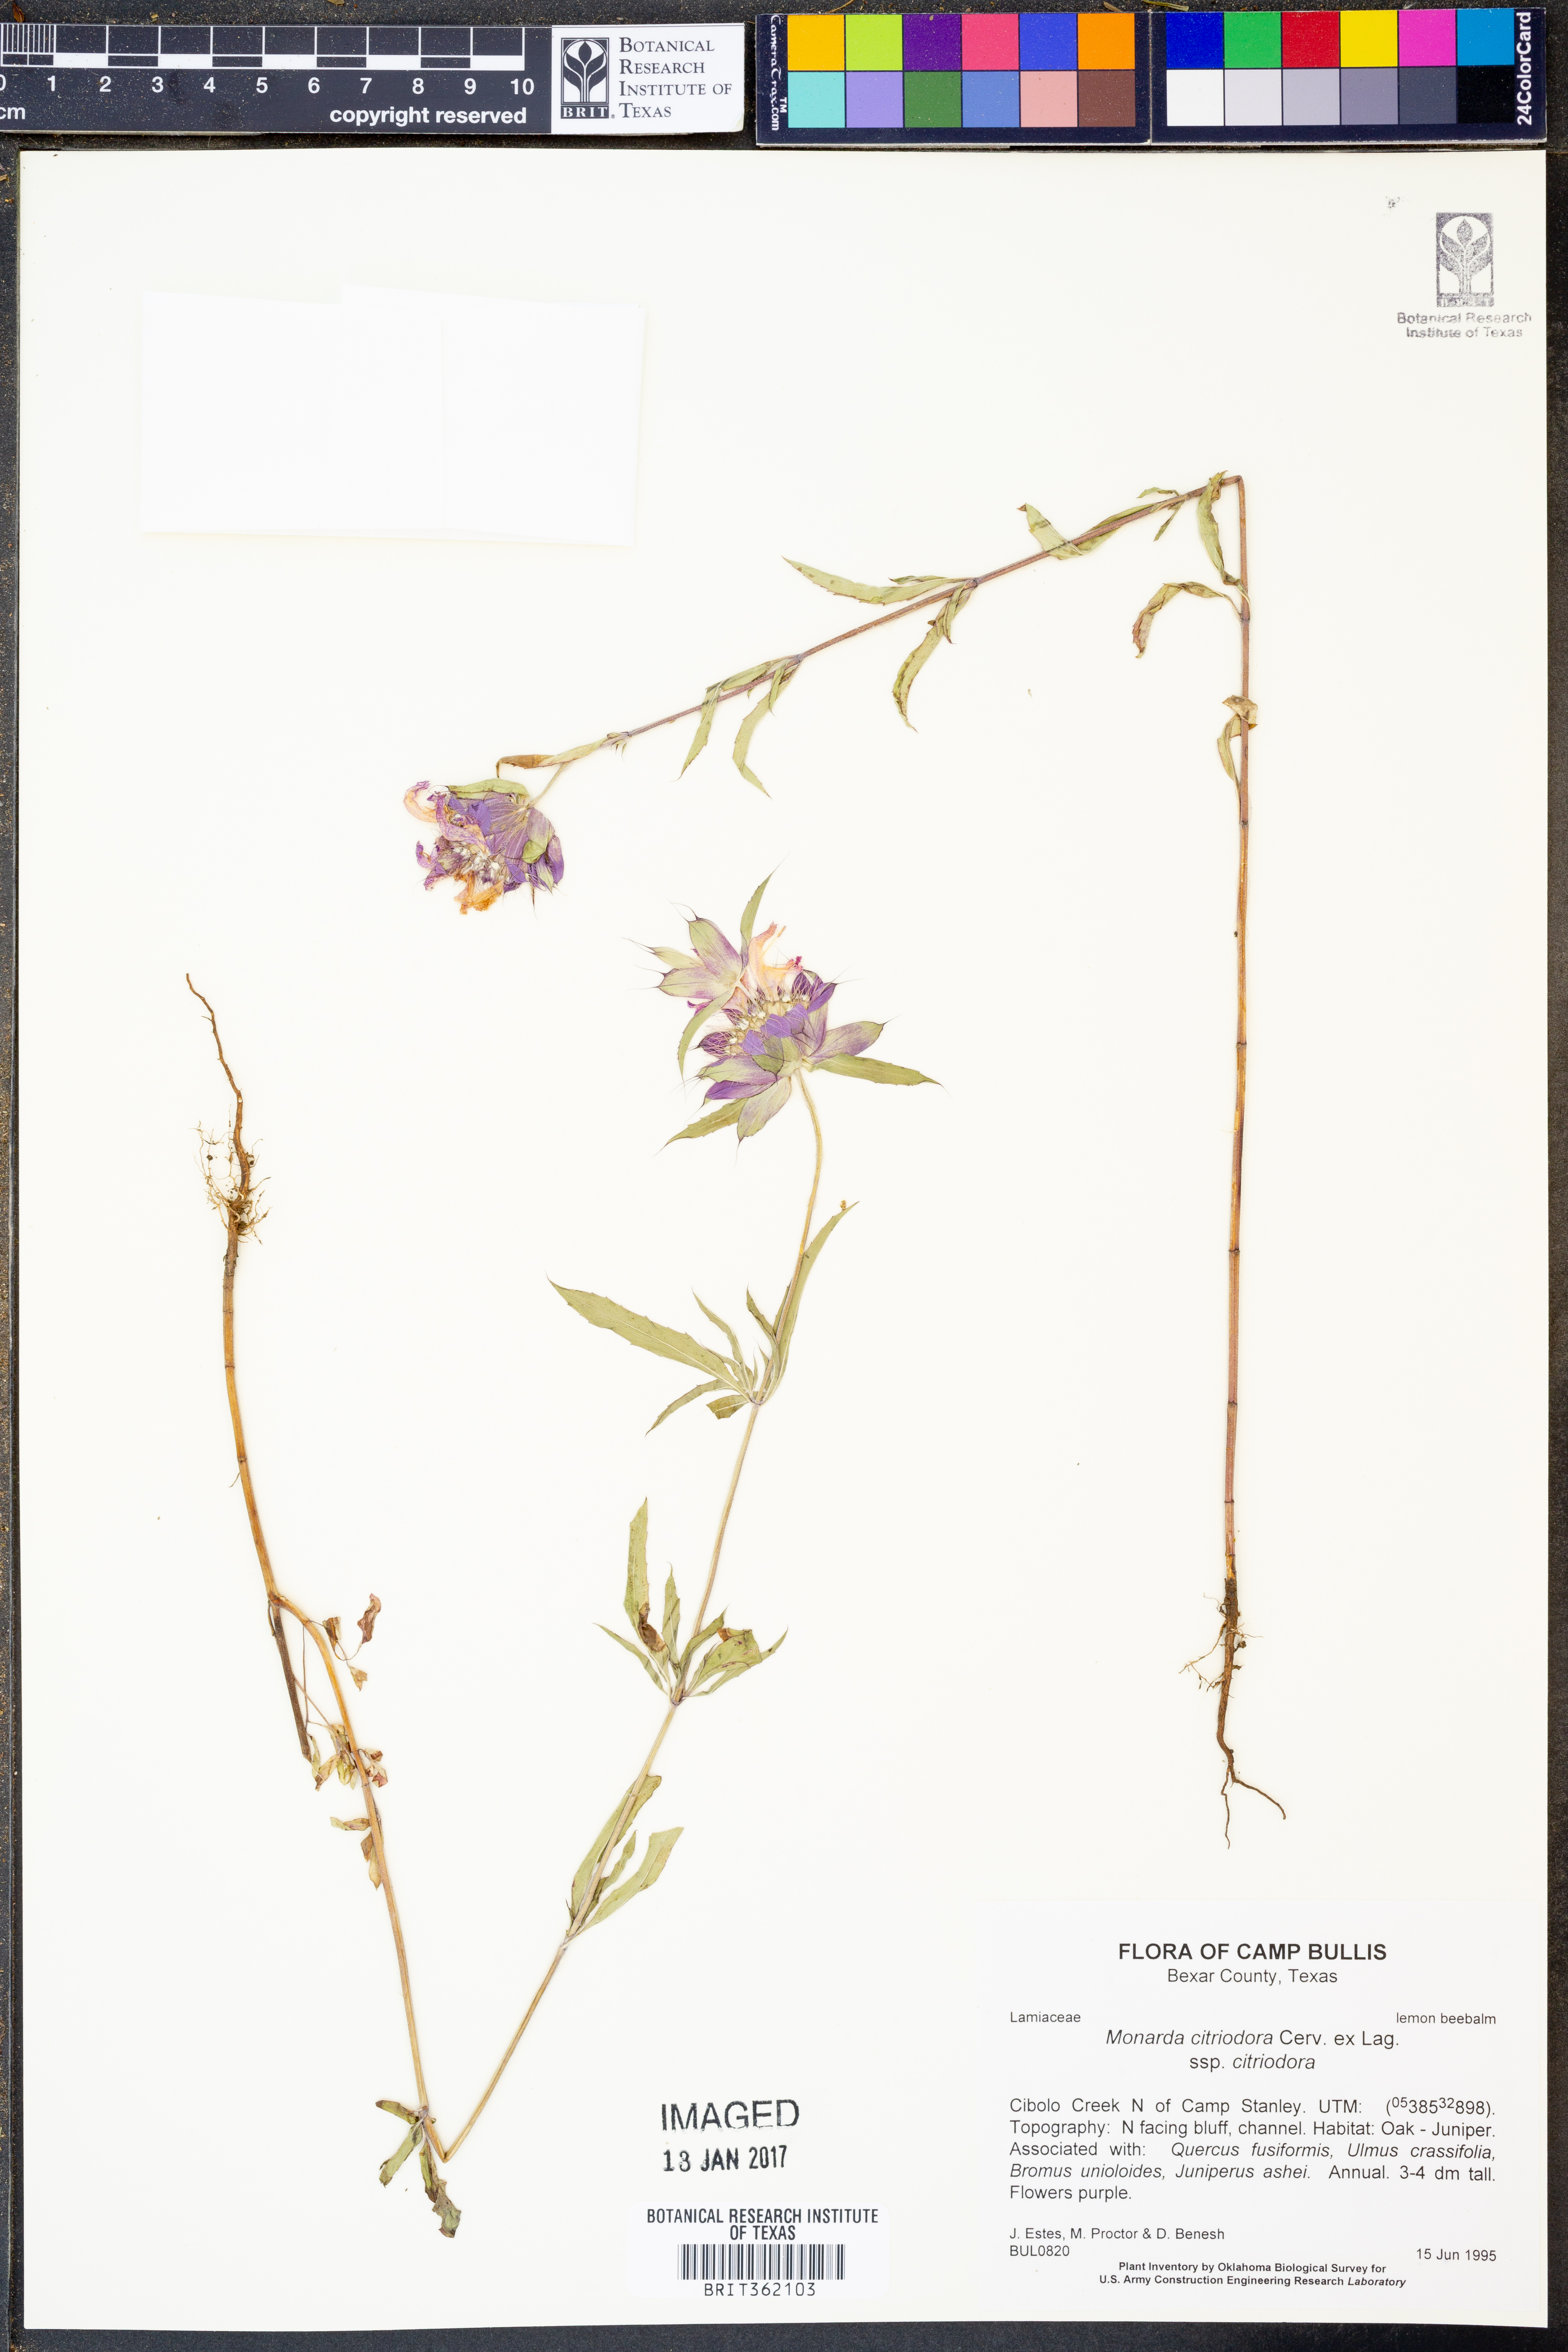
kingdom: Plantae
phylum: Tracheophyta
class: Magnoliopsida
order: Lamiales
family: Lamiaceae
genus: Monarda
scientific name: Monarda citriodora
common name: Lemon beebalm
